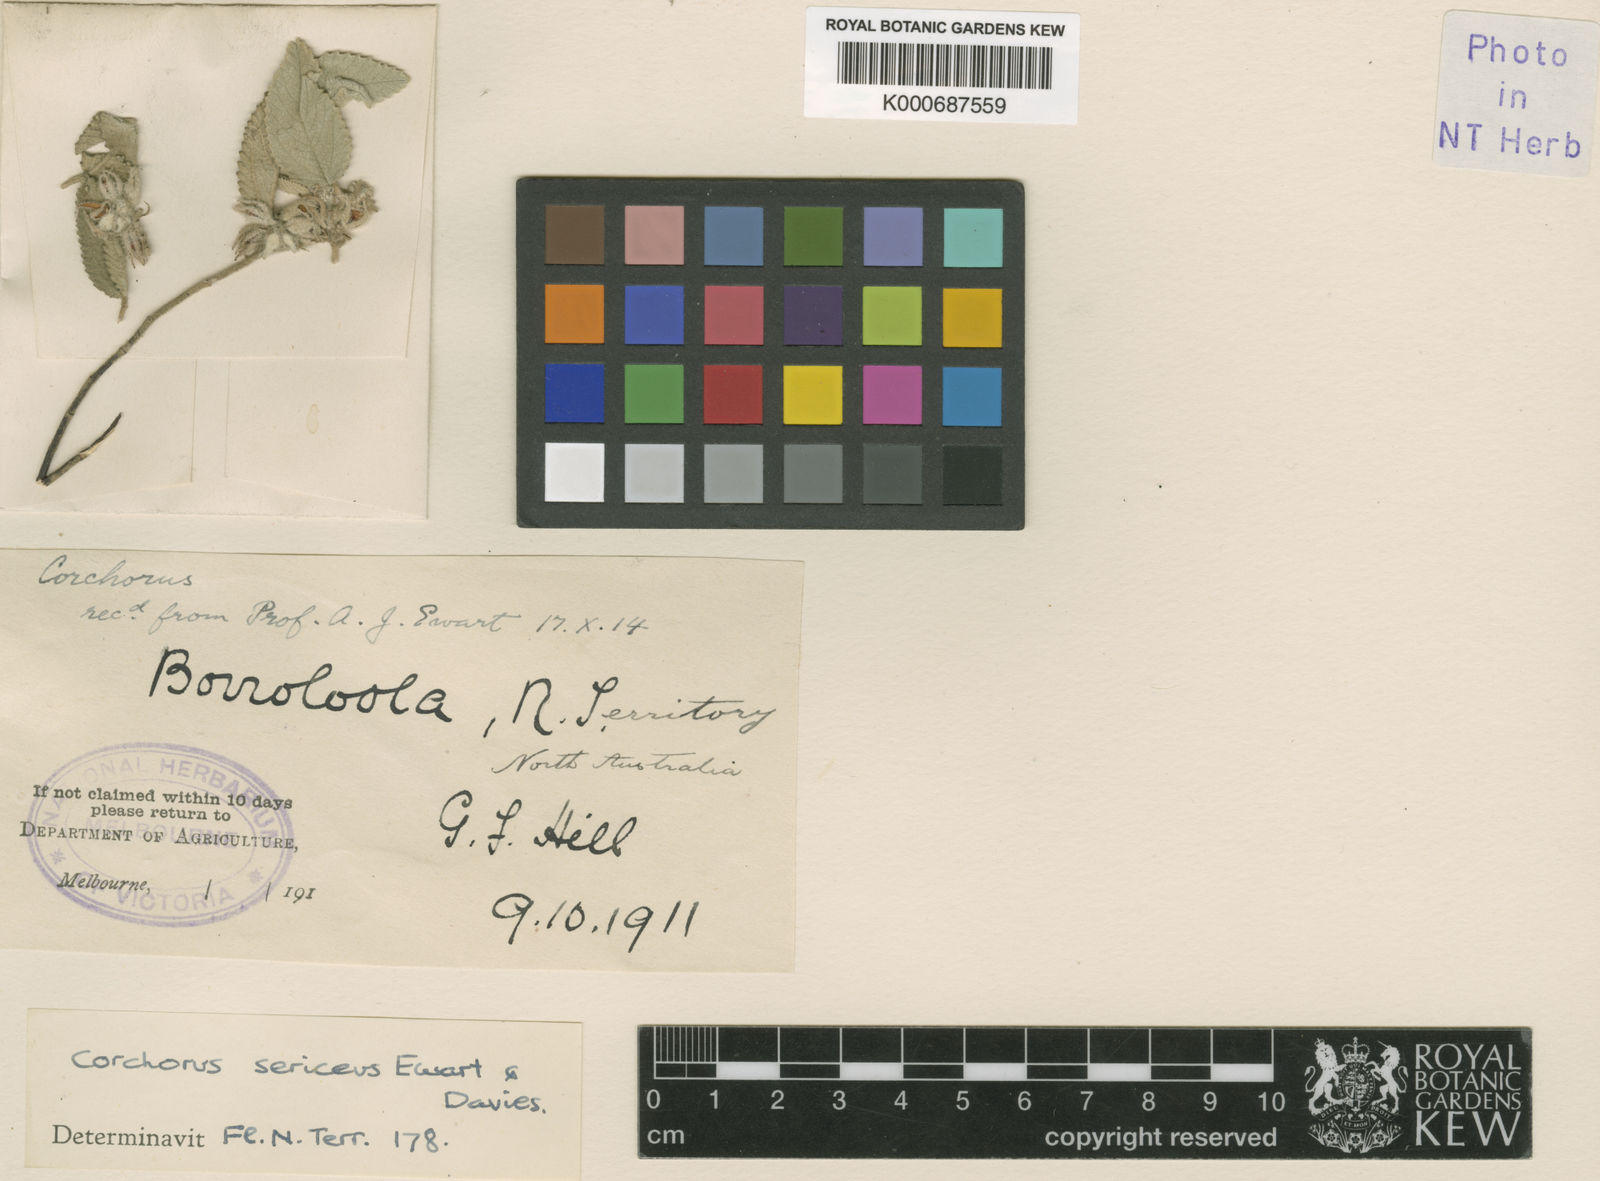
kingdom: Plantae
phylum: Tracheophyta
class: Magnoliopsida
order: Malvales
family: Malvaceae
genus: Corchorus
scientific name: Corchorus sericeus
